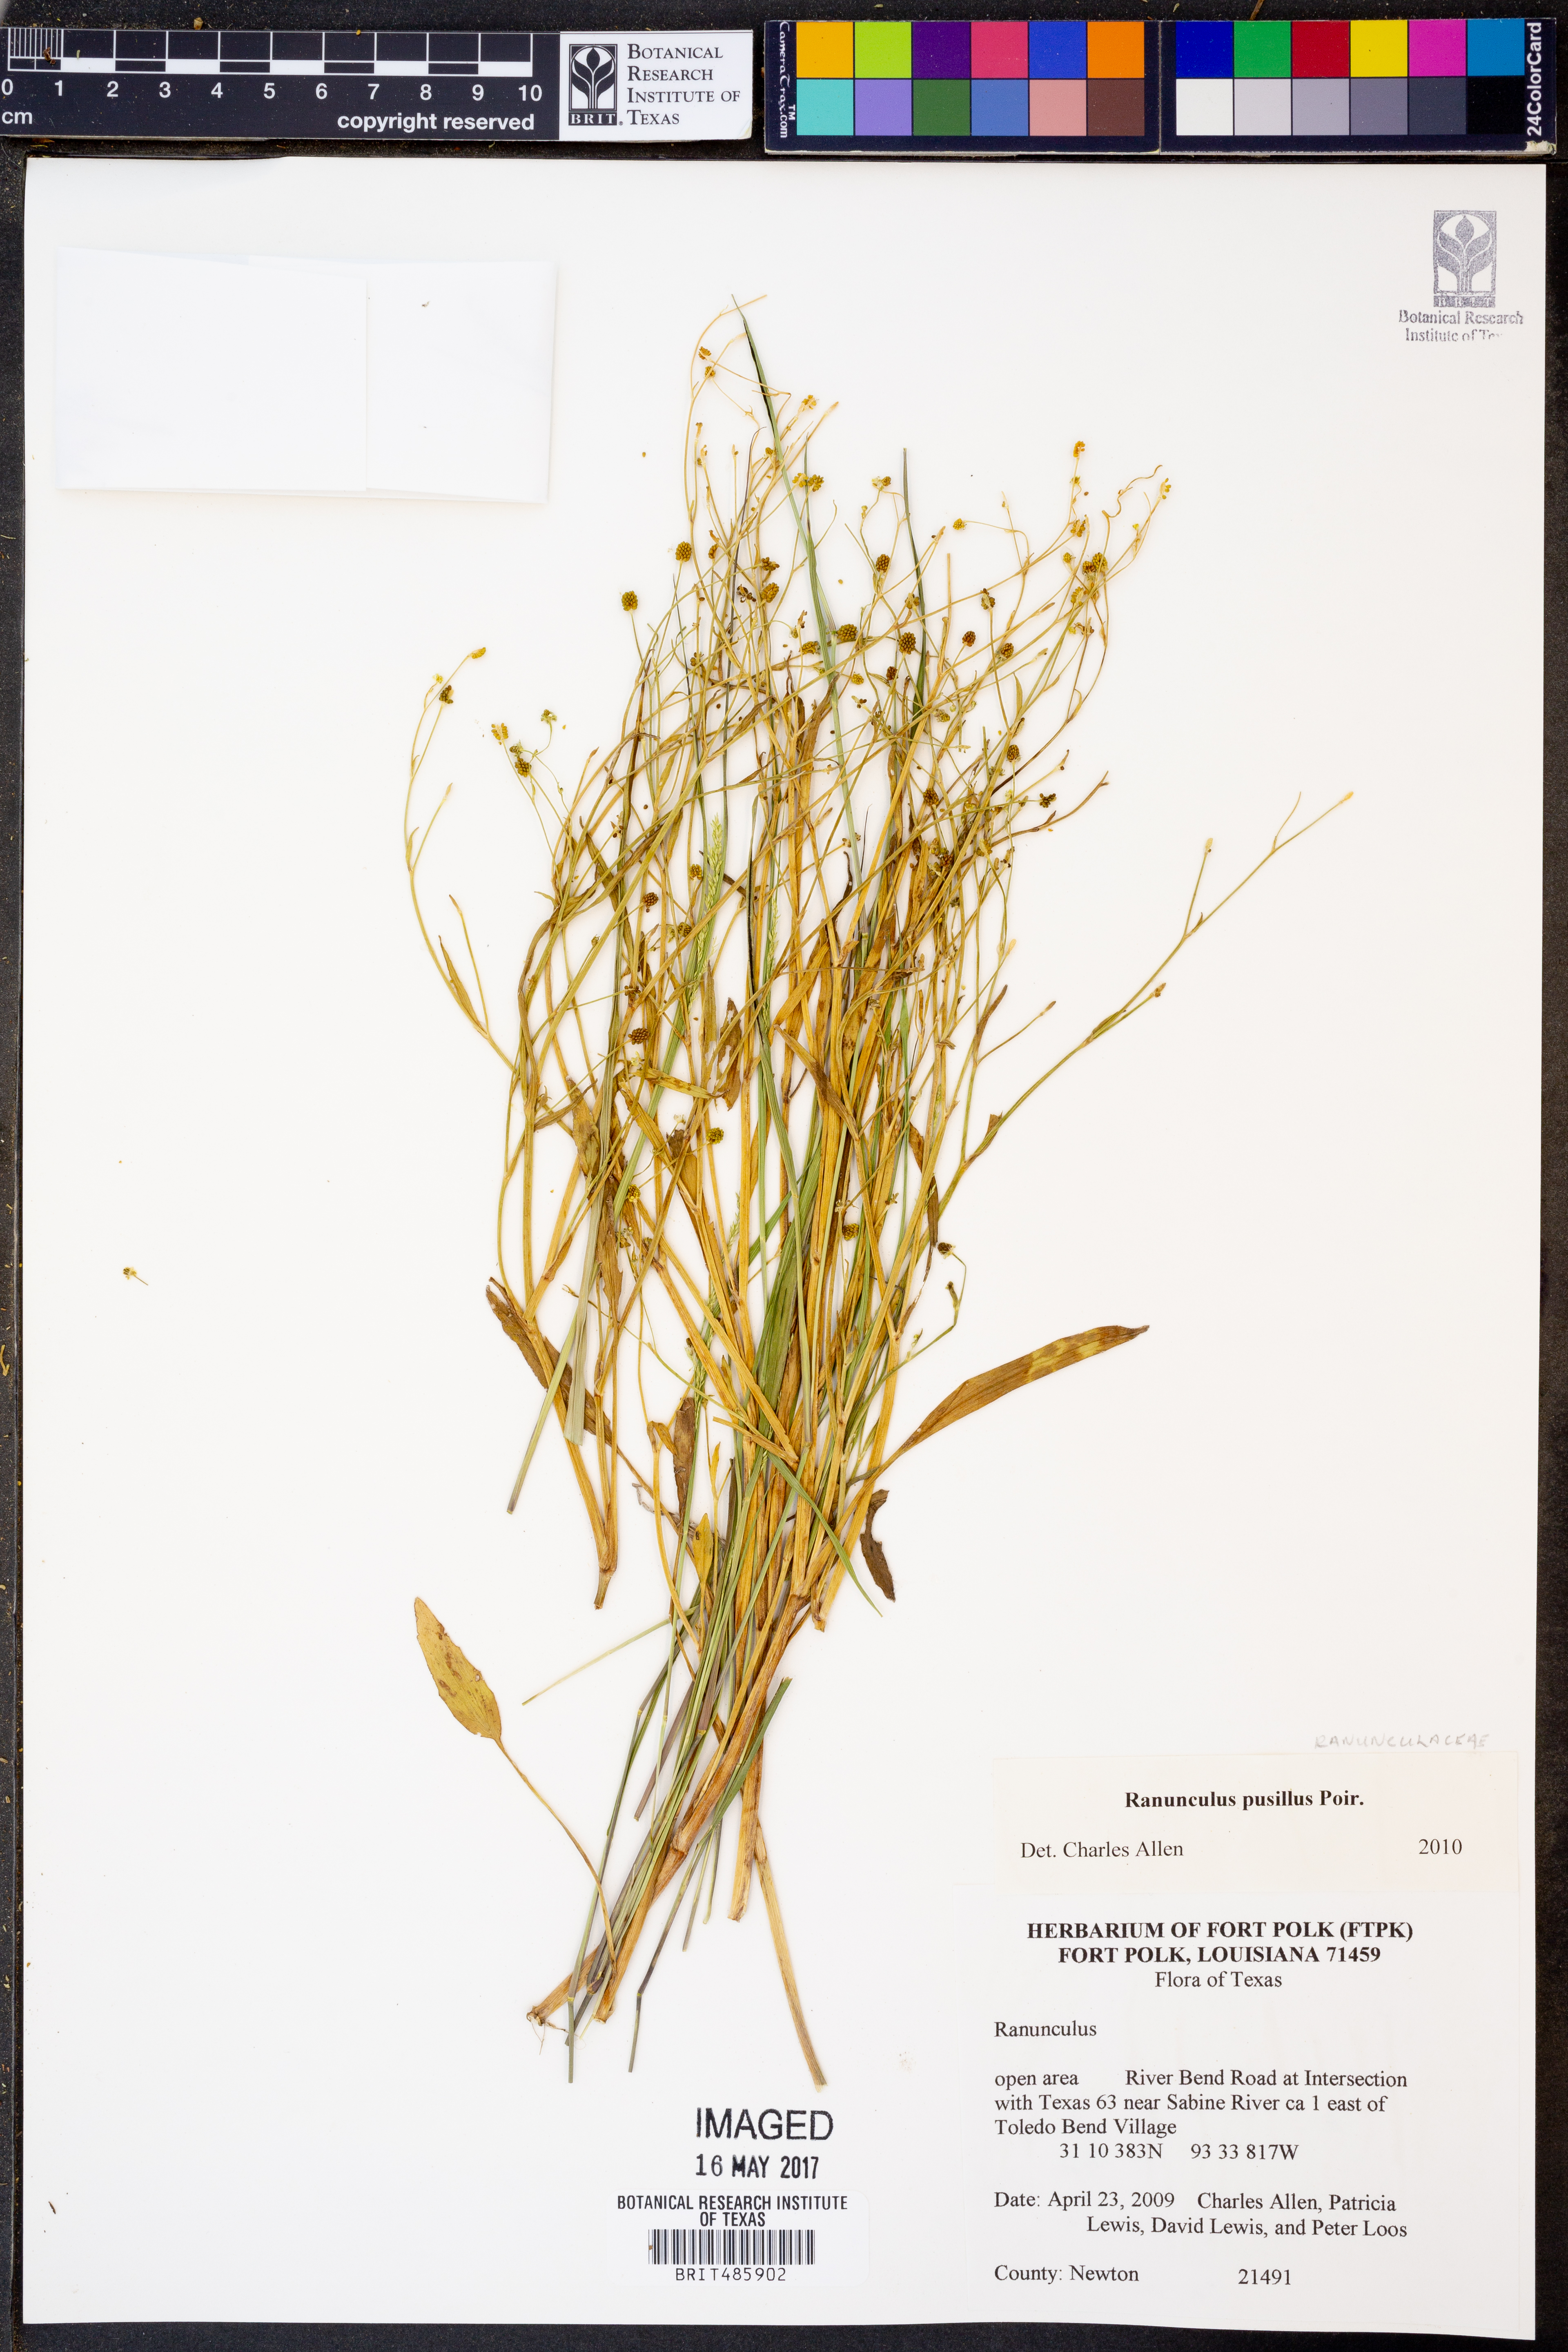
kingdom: Plantae
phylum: Tracheophyta
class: Magnoliopsida
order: Ranunculales
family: Ranunculaceae
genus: Ranunculus
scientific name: Ranunculus pusillus
